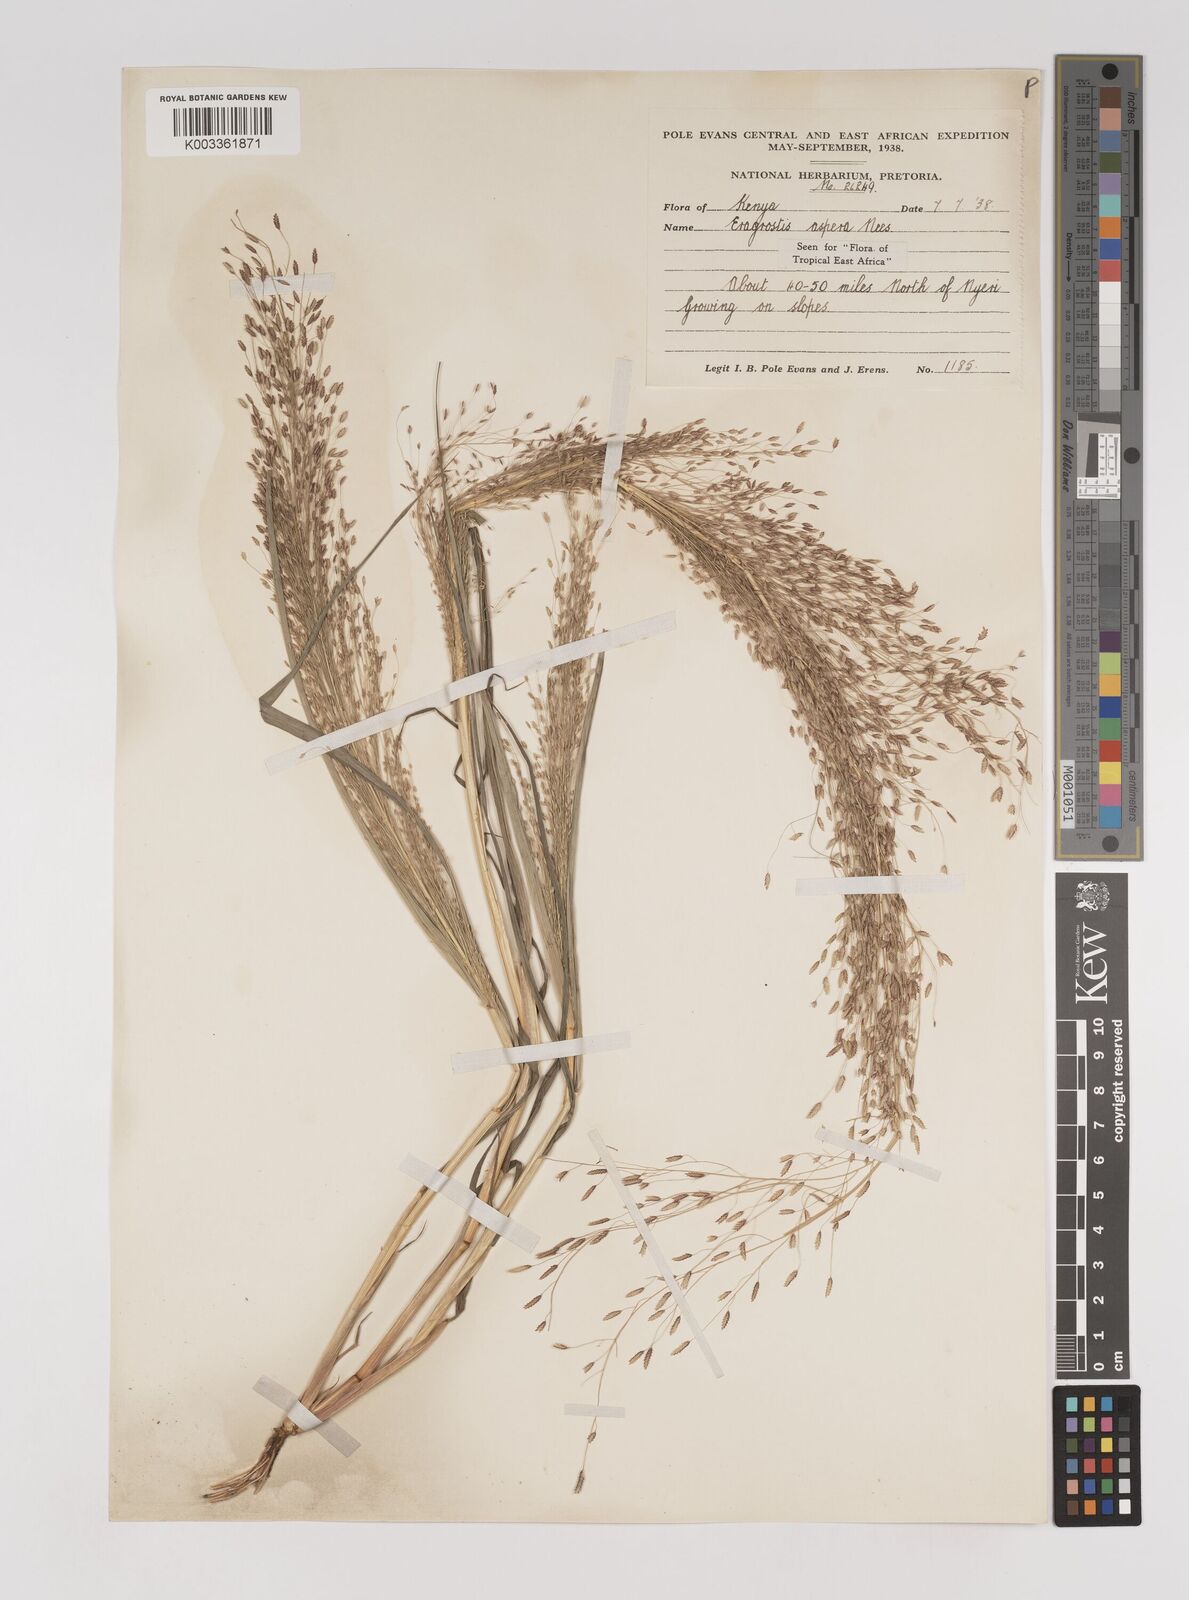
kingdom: Plantae
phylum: Tracheophyta
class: Liliopsida
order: Poales
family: Poaceae
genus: Eragrostis
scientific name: Eragrostis aspera
